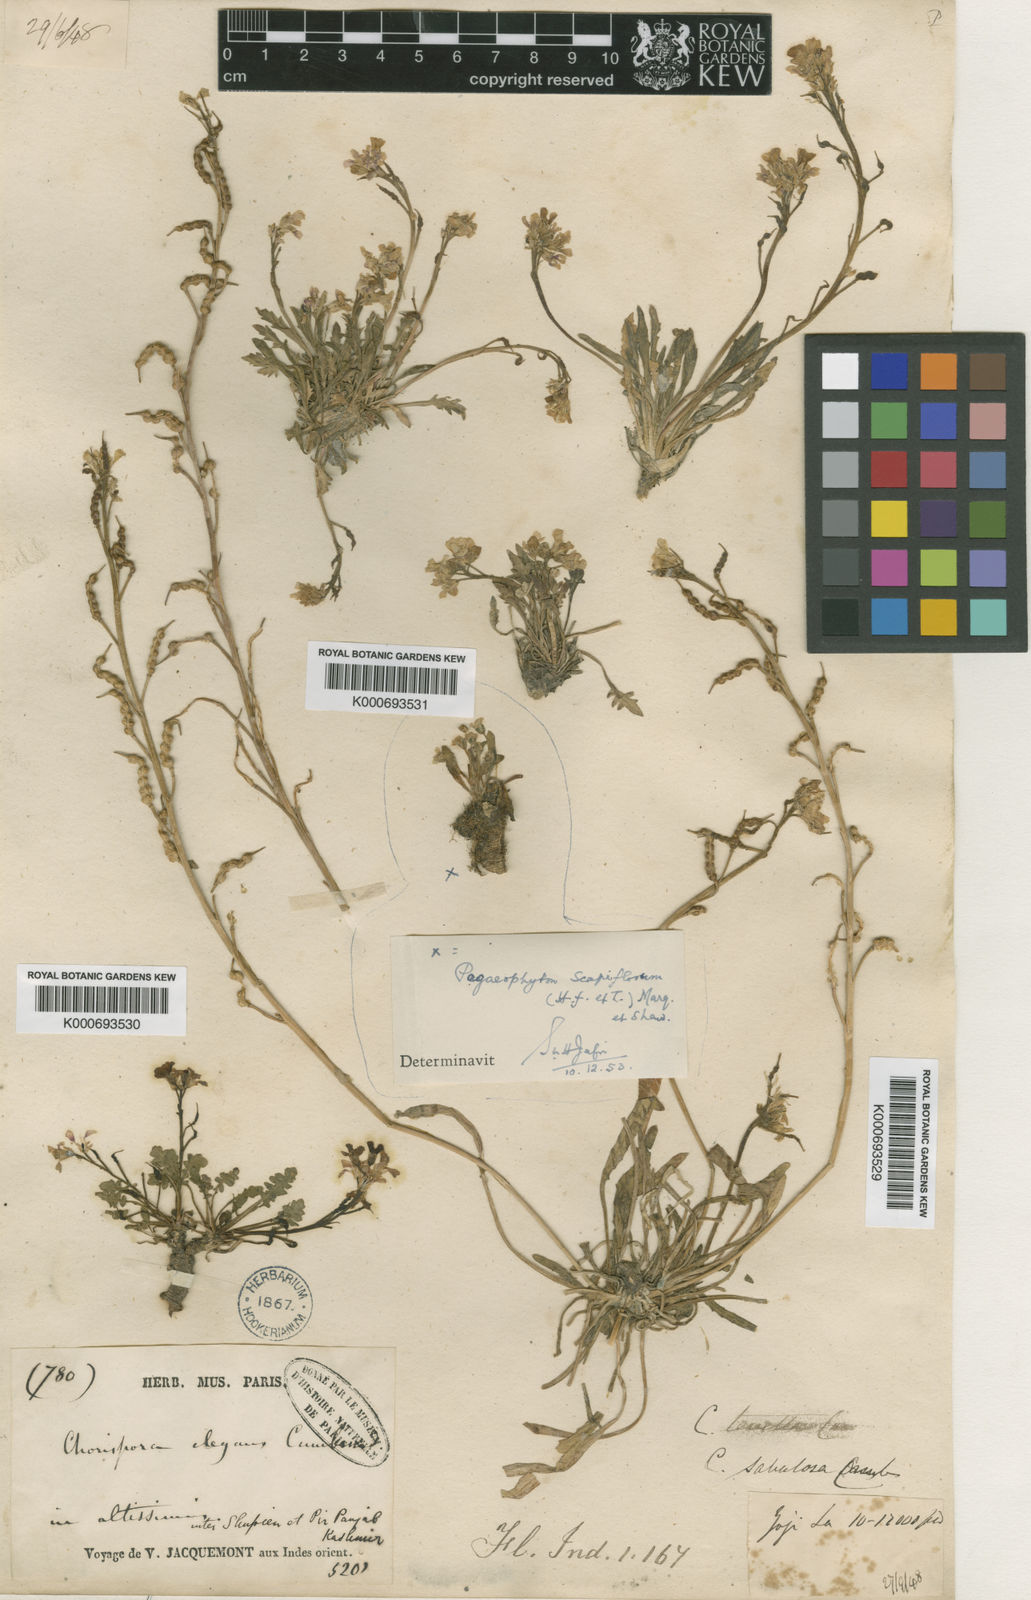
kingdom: Plantae
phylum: Tracheophyta
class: Magnoliopsida
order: Brassicales
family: Brassicaceae
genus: Chorispora
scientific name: Chorispora sabulosa
